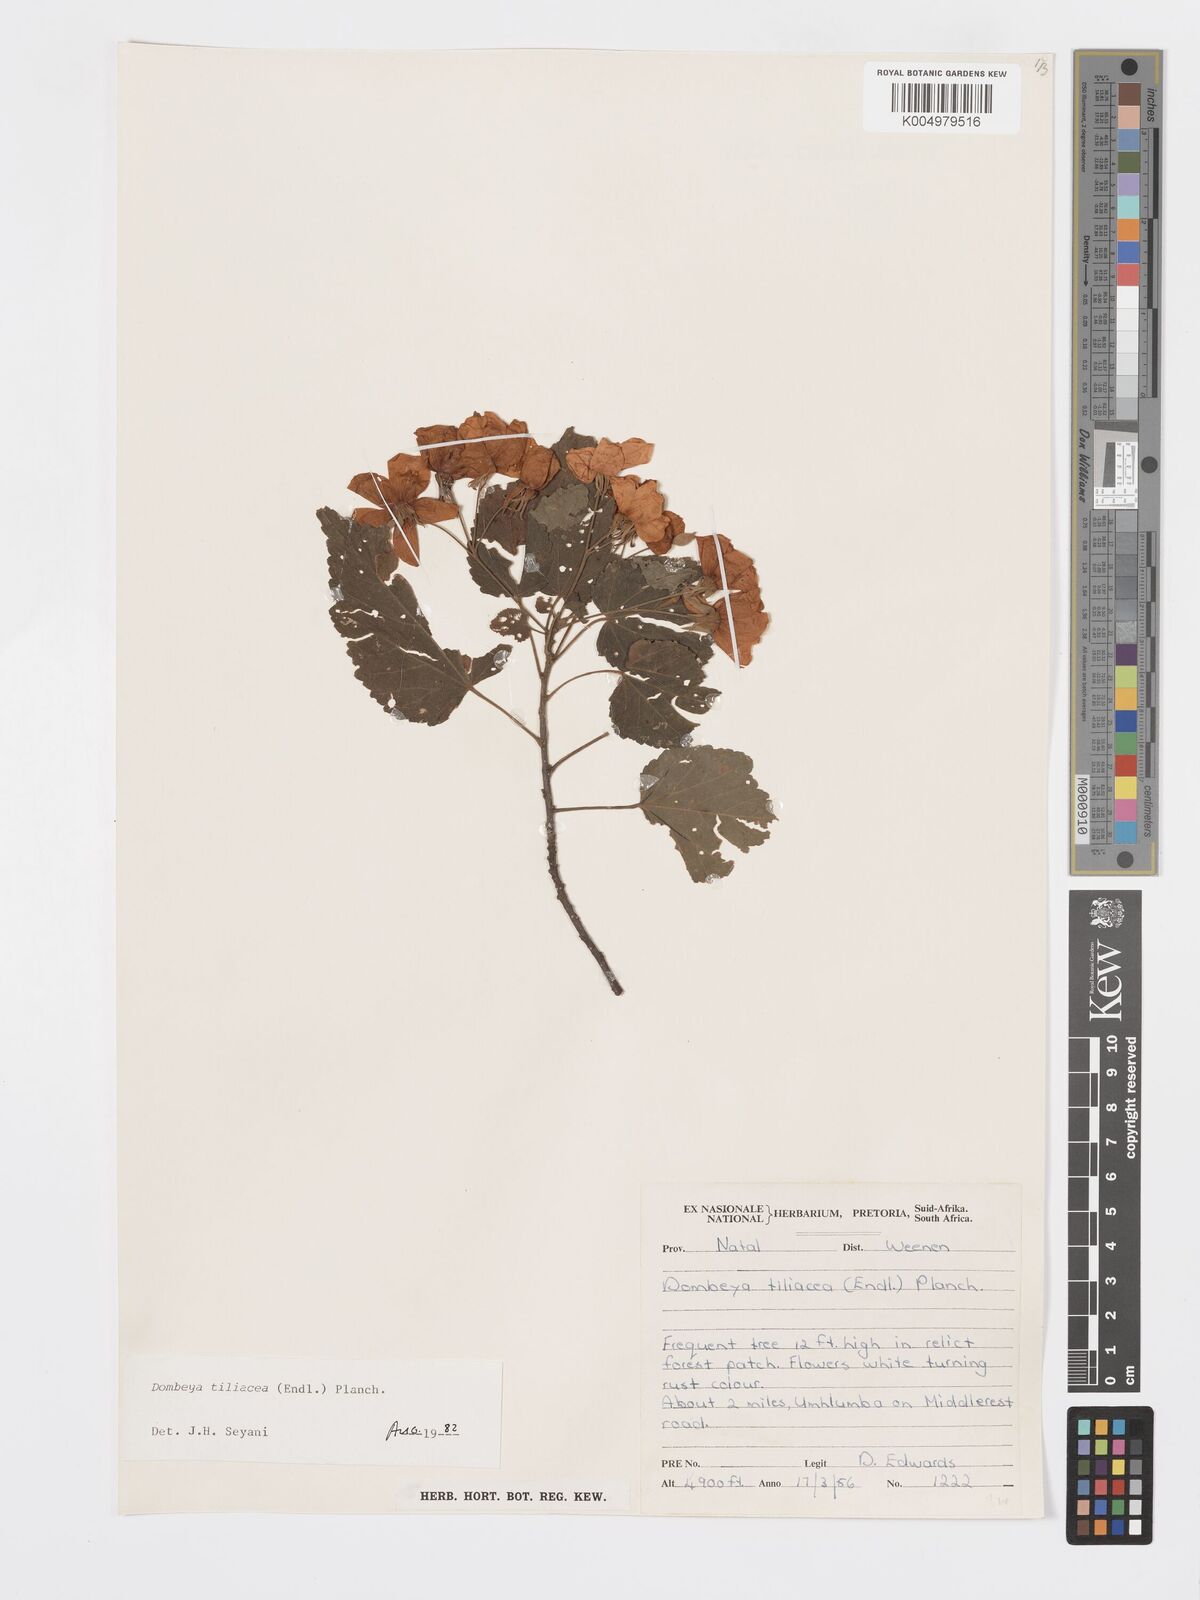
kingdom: Plantae
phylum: Tracheophyta
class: Magnoliopsida
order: Malvales
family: Malvaceae
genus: Dombeya
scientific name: Dombeya tiliacea
